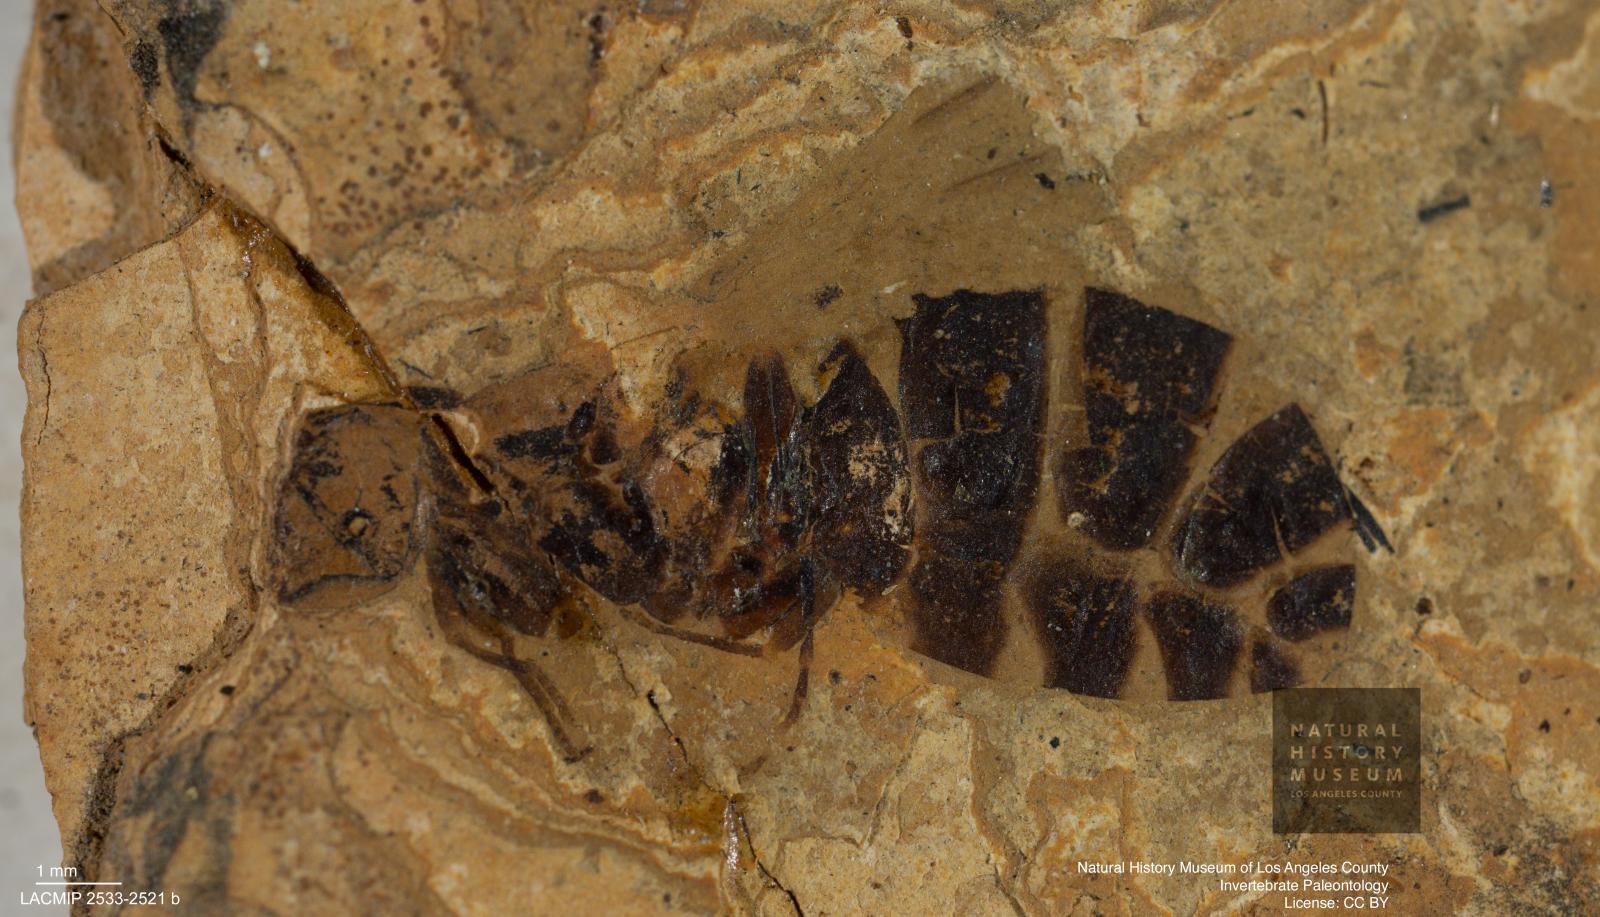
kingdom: Animalia
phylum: Arthropoda
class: Insecta
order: Hymenoptera
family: Formicidae
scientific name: Formicidae
